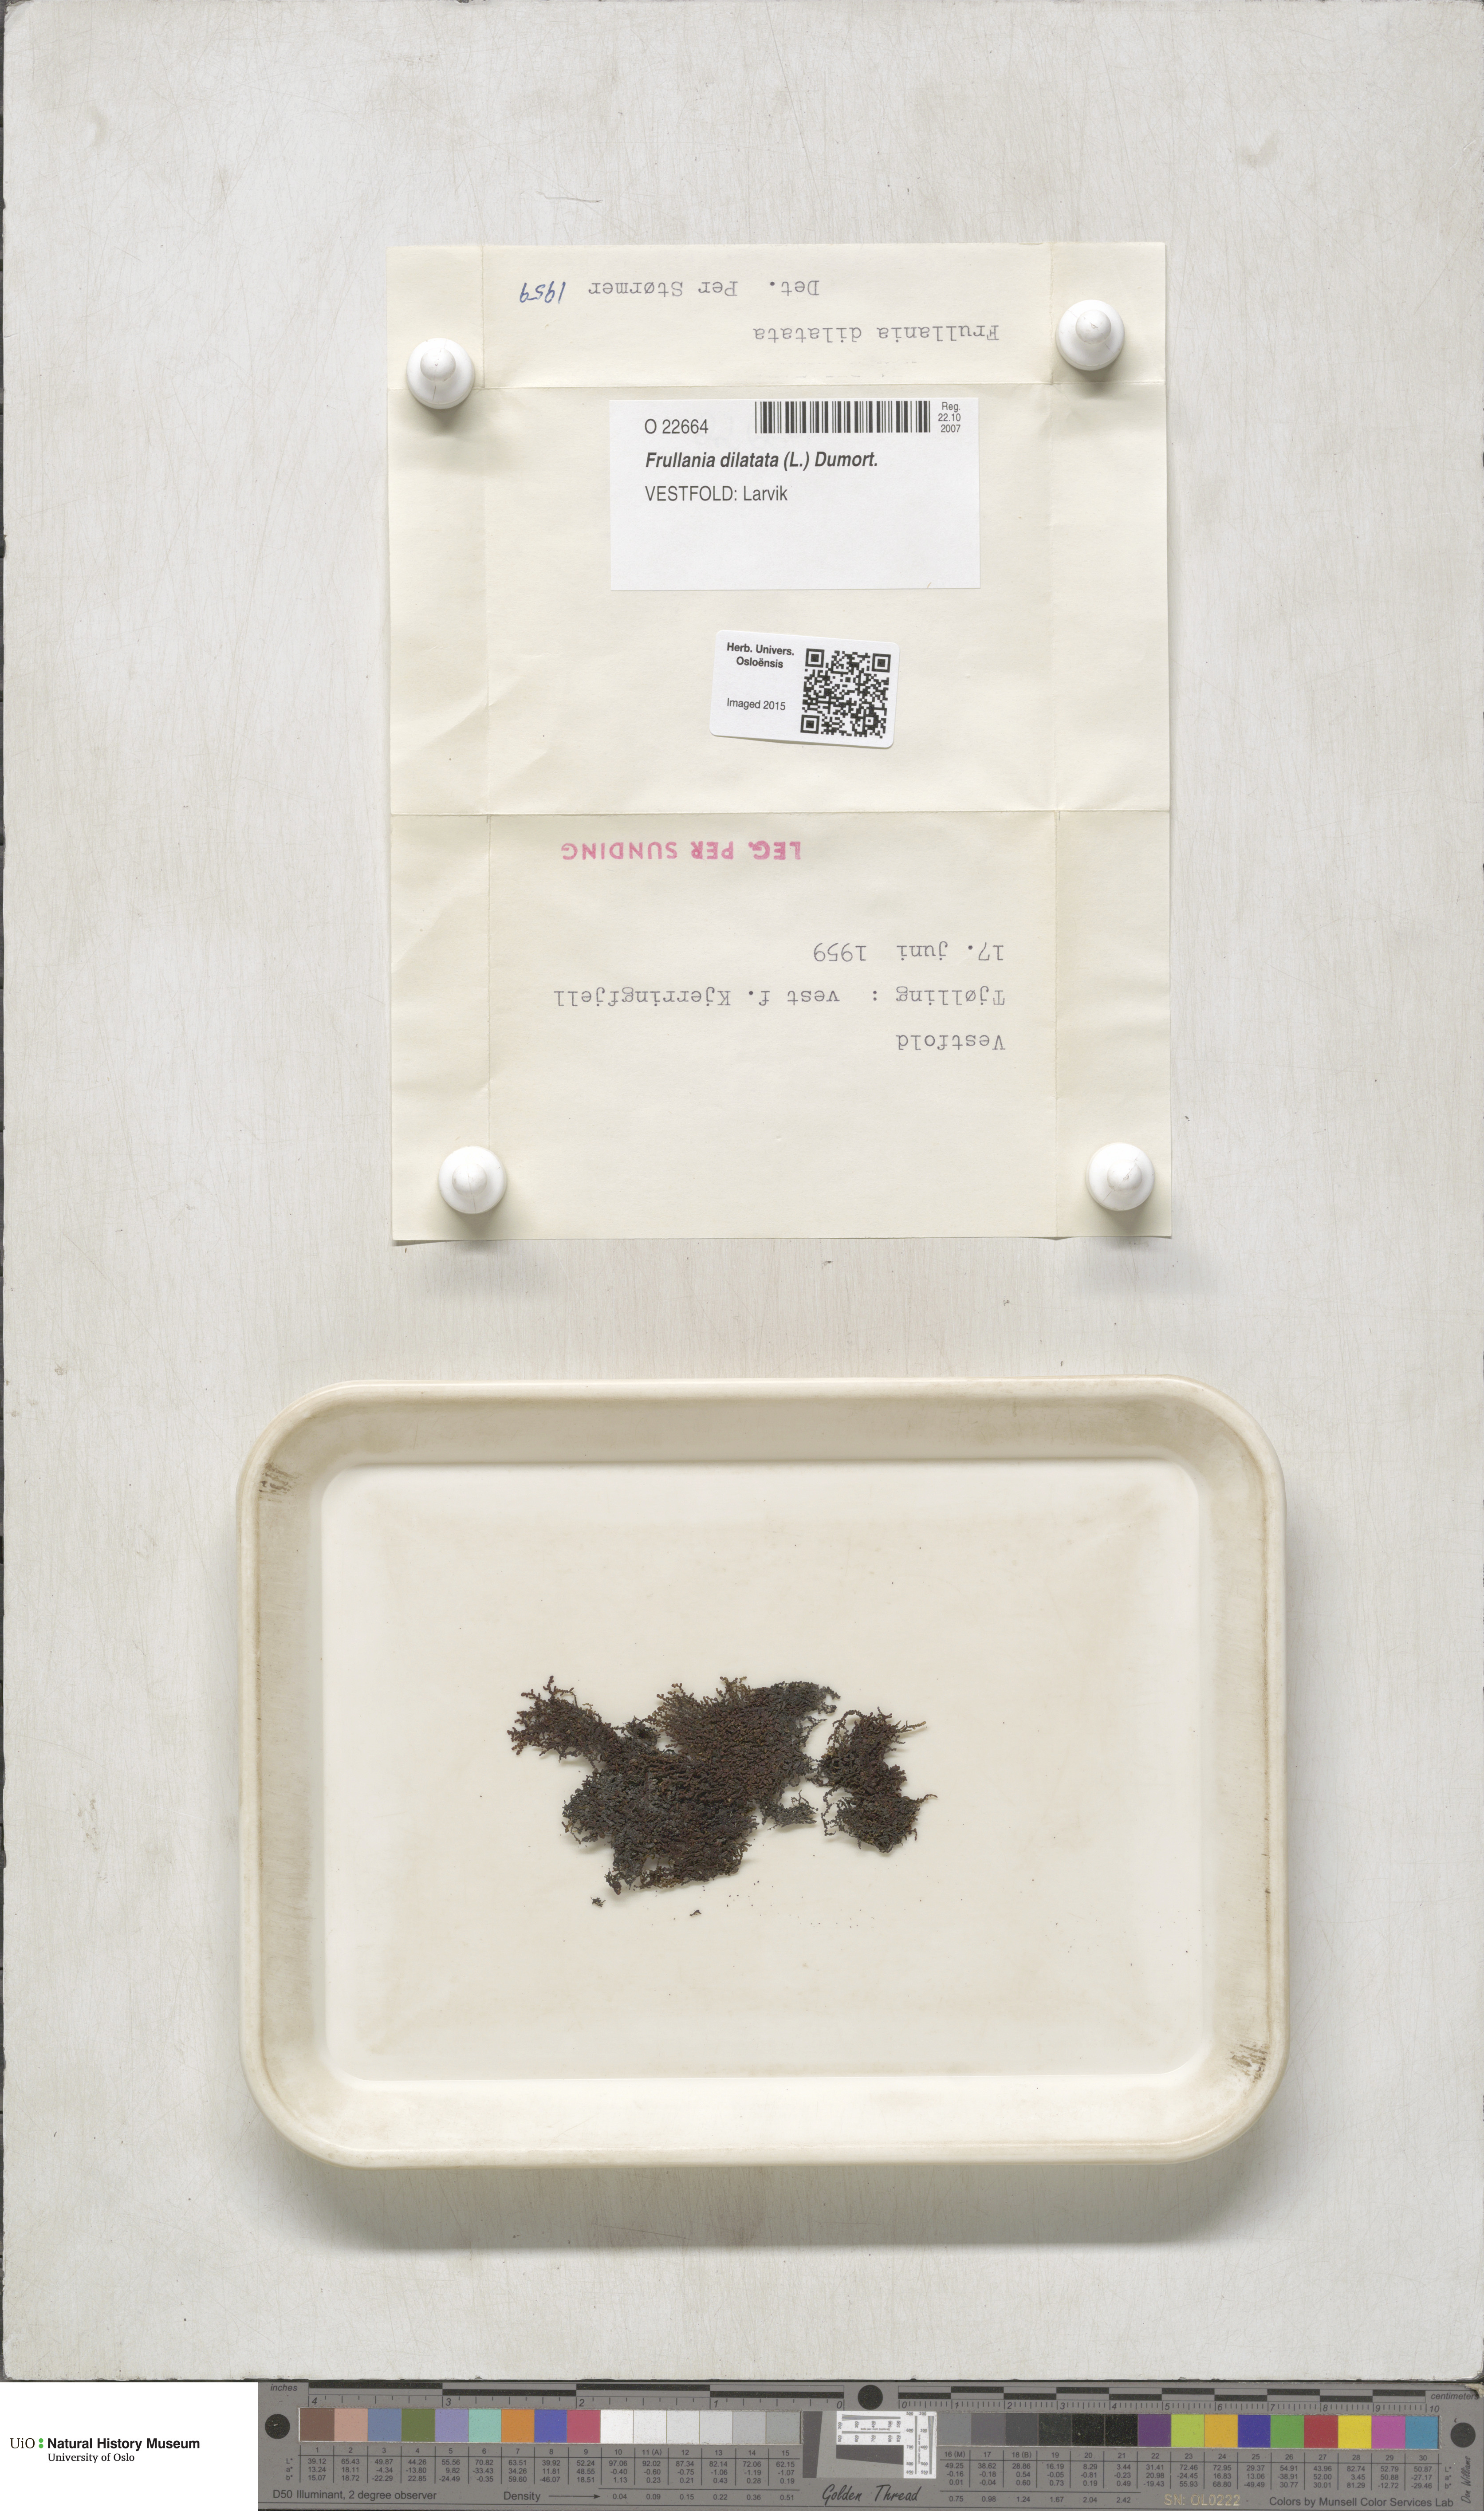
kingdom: Plantae
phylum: Marchantiophyta
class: Jungermanniopsida
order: Porellales
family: Frullaniaceae
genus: Frullania
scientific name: Frullania dilatata
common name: Dilated scalewort
